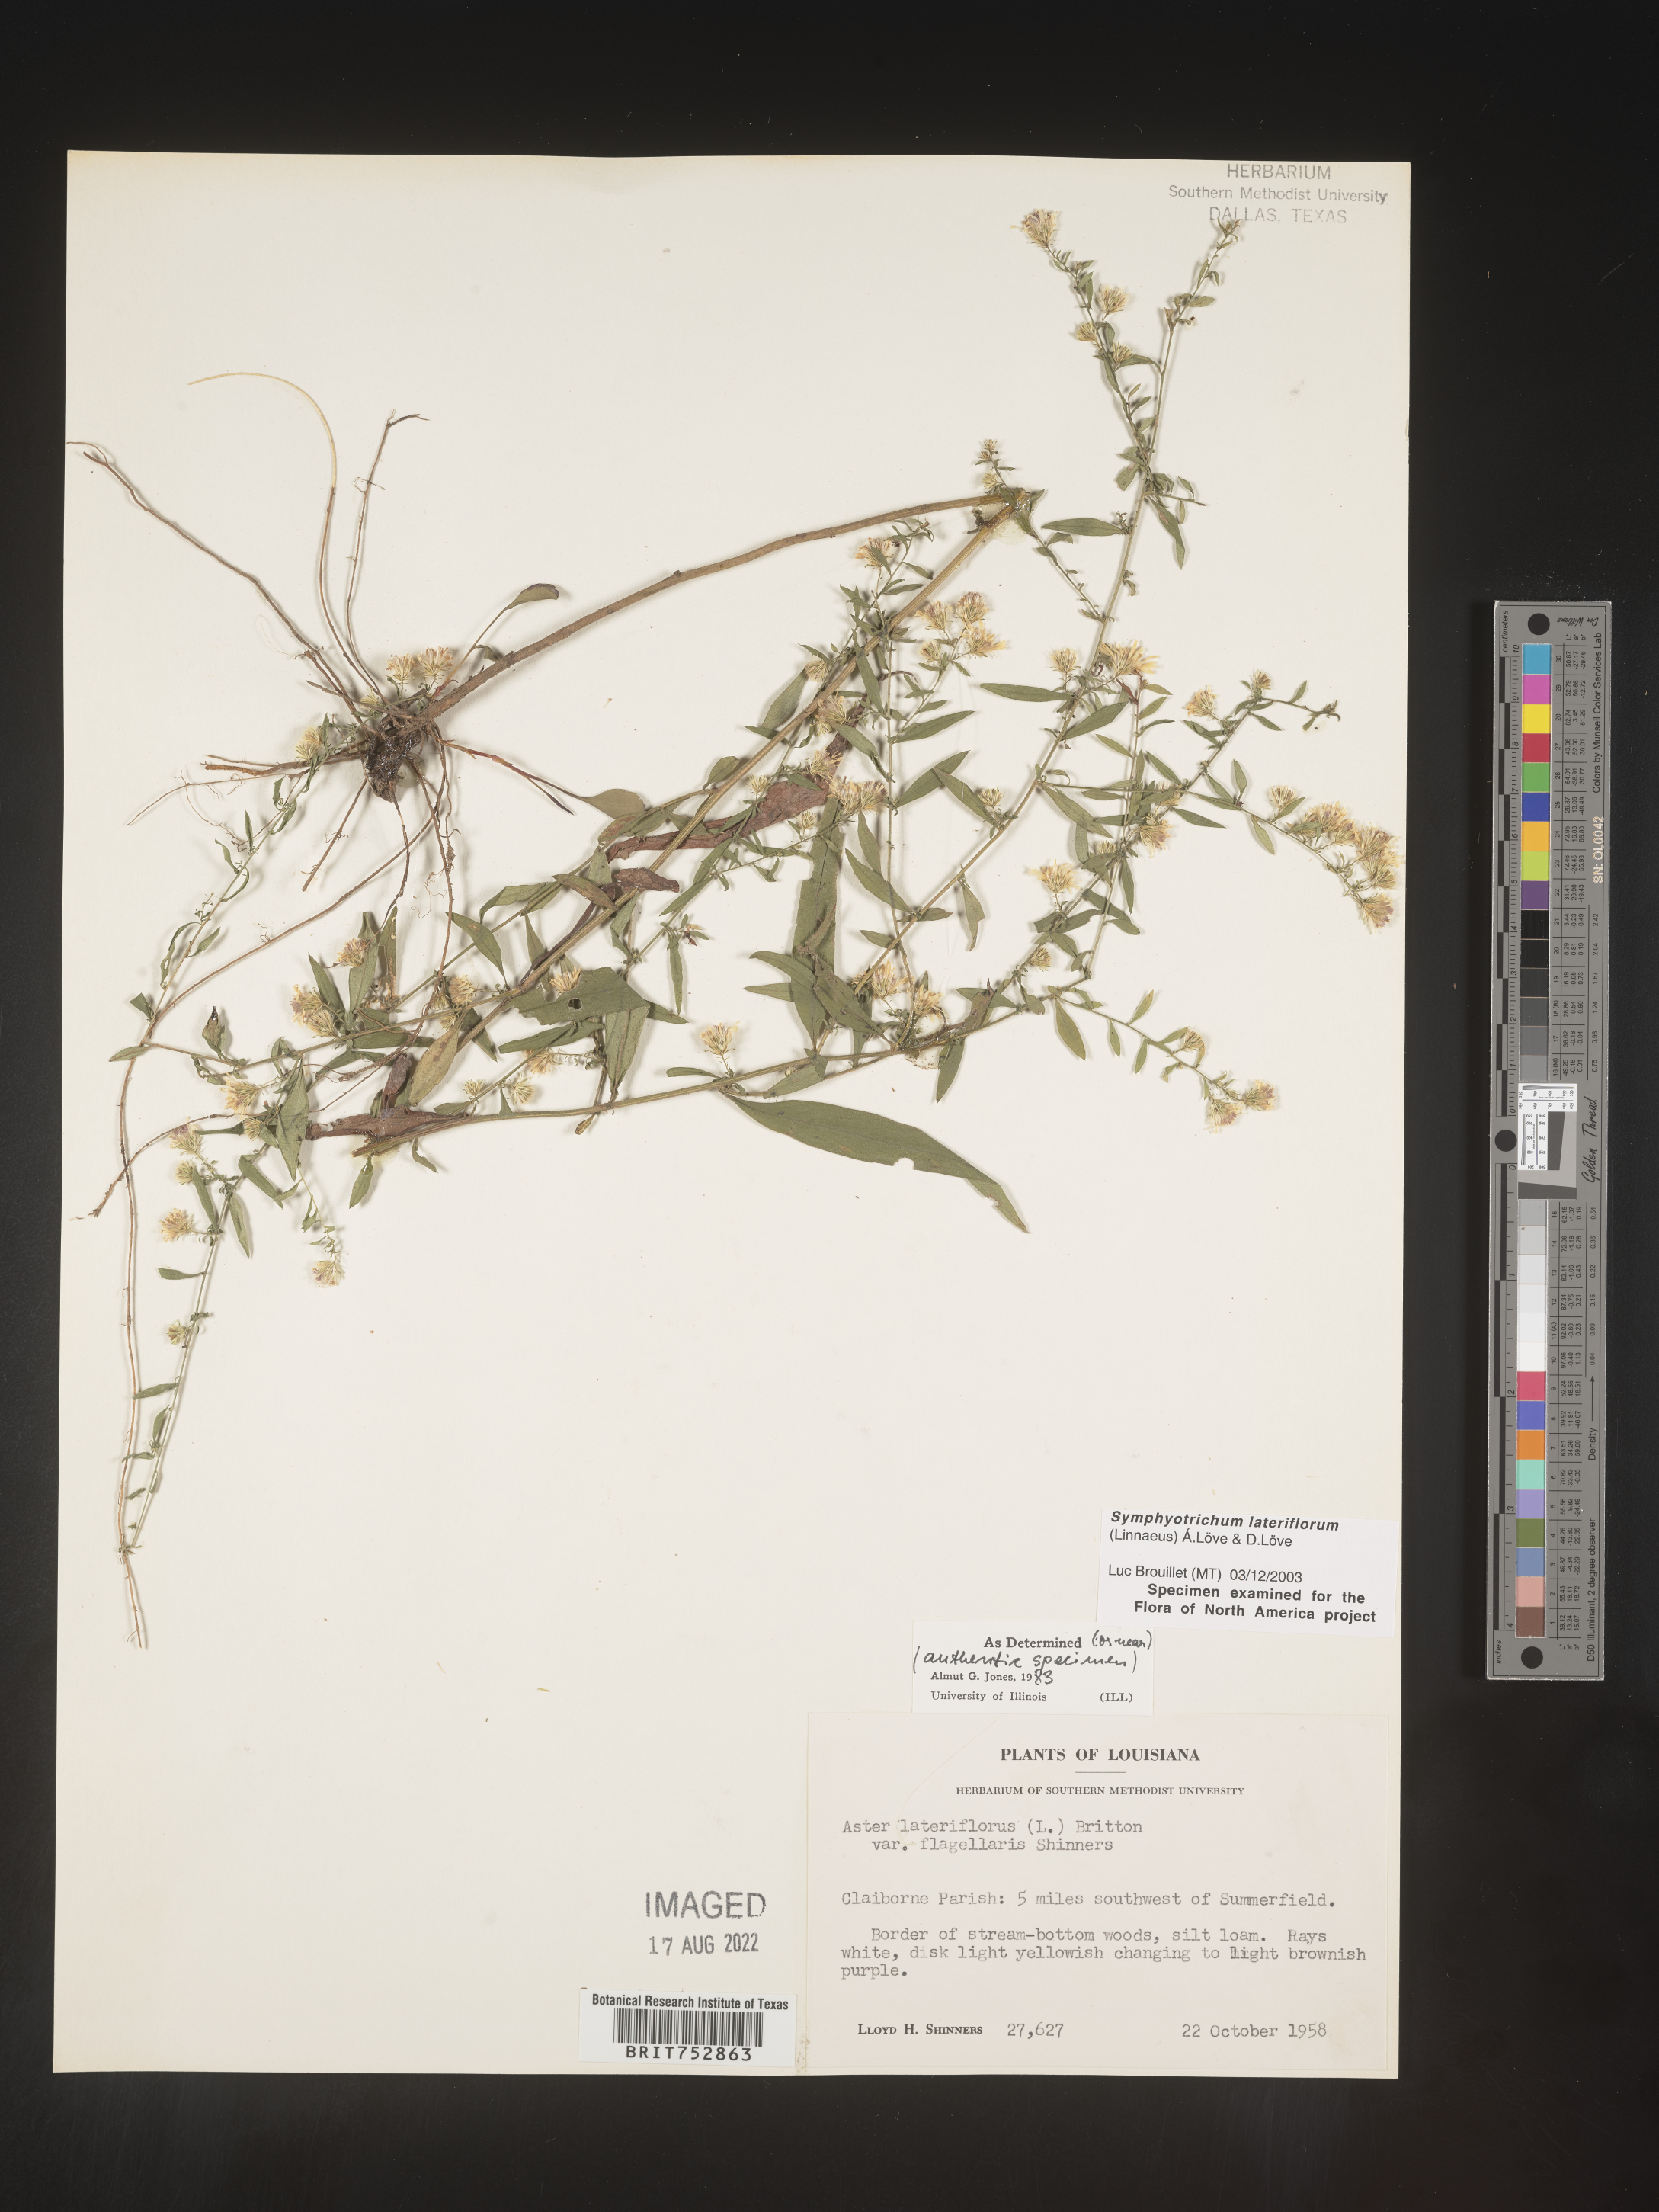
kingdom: Plantae
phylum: Tracheophyta
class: Magnoliopsida
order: Asterales
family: Asteraceae
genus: Symphyotrichum
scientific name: Symphyotrichum lateriflorum
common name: Calico aster
